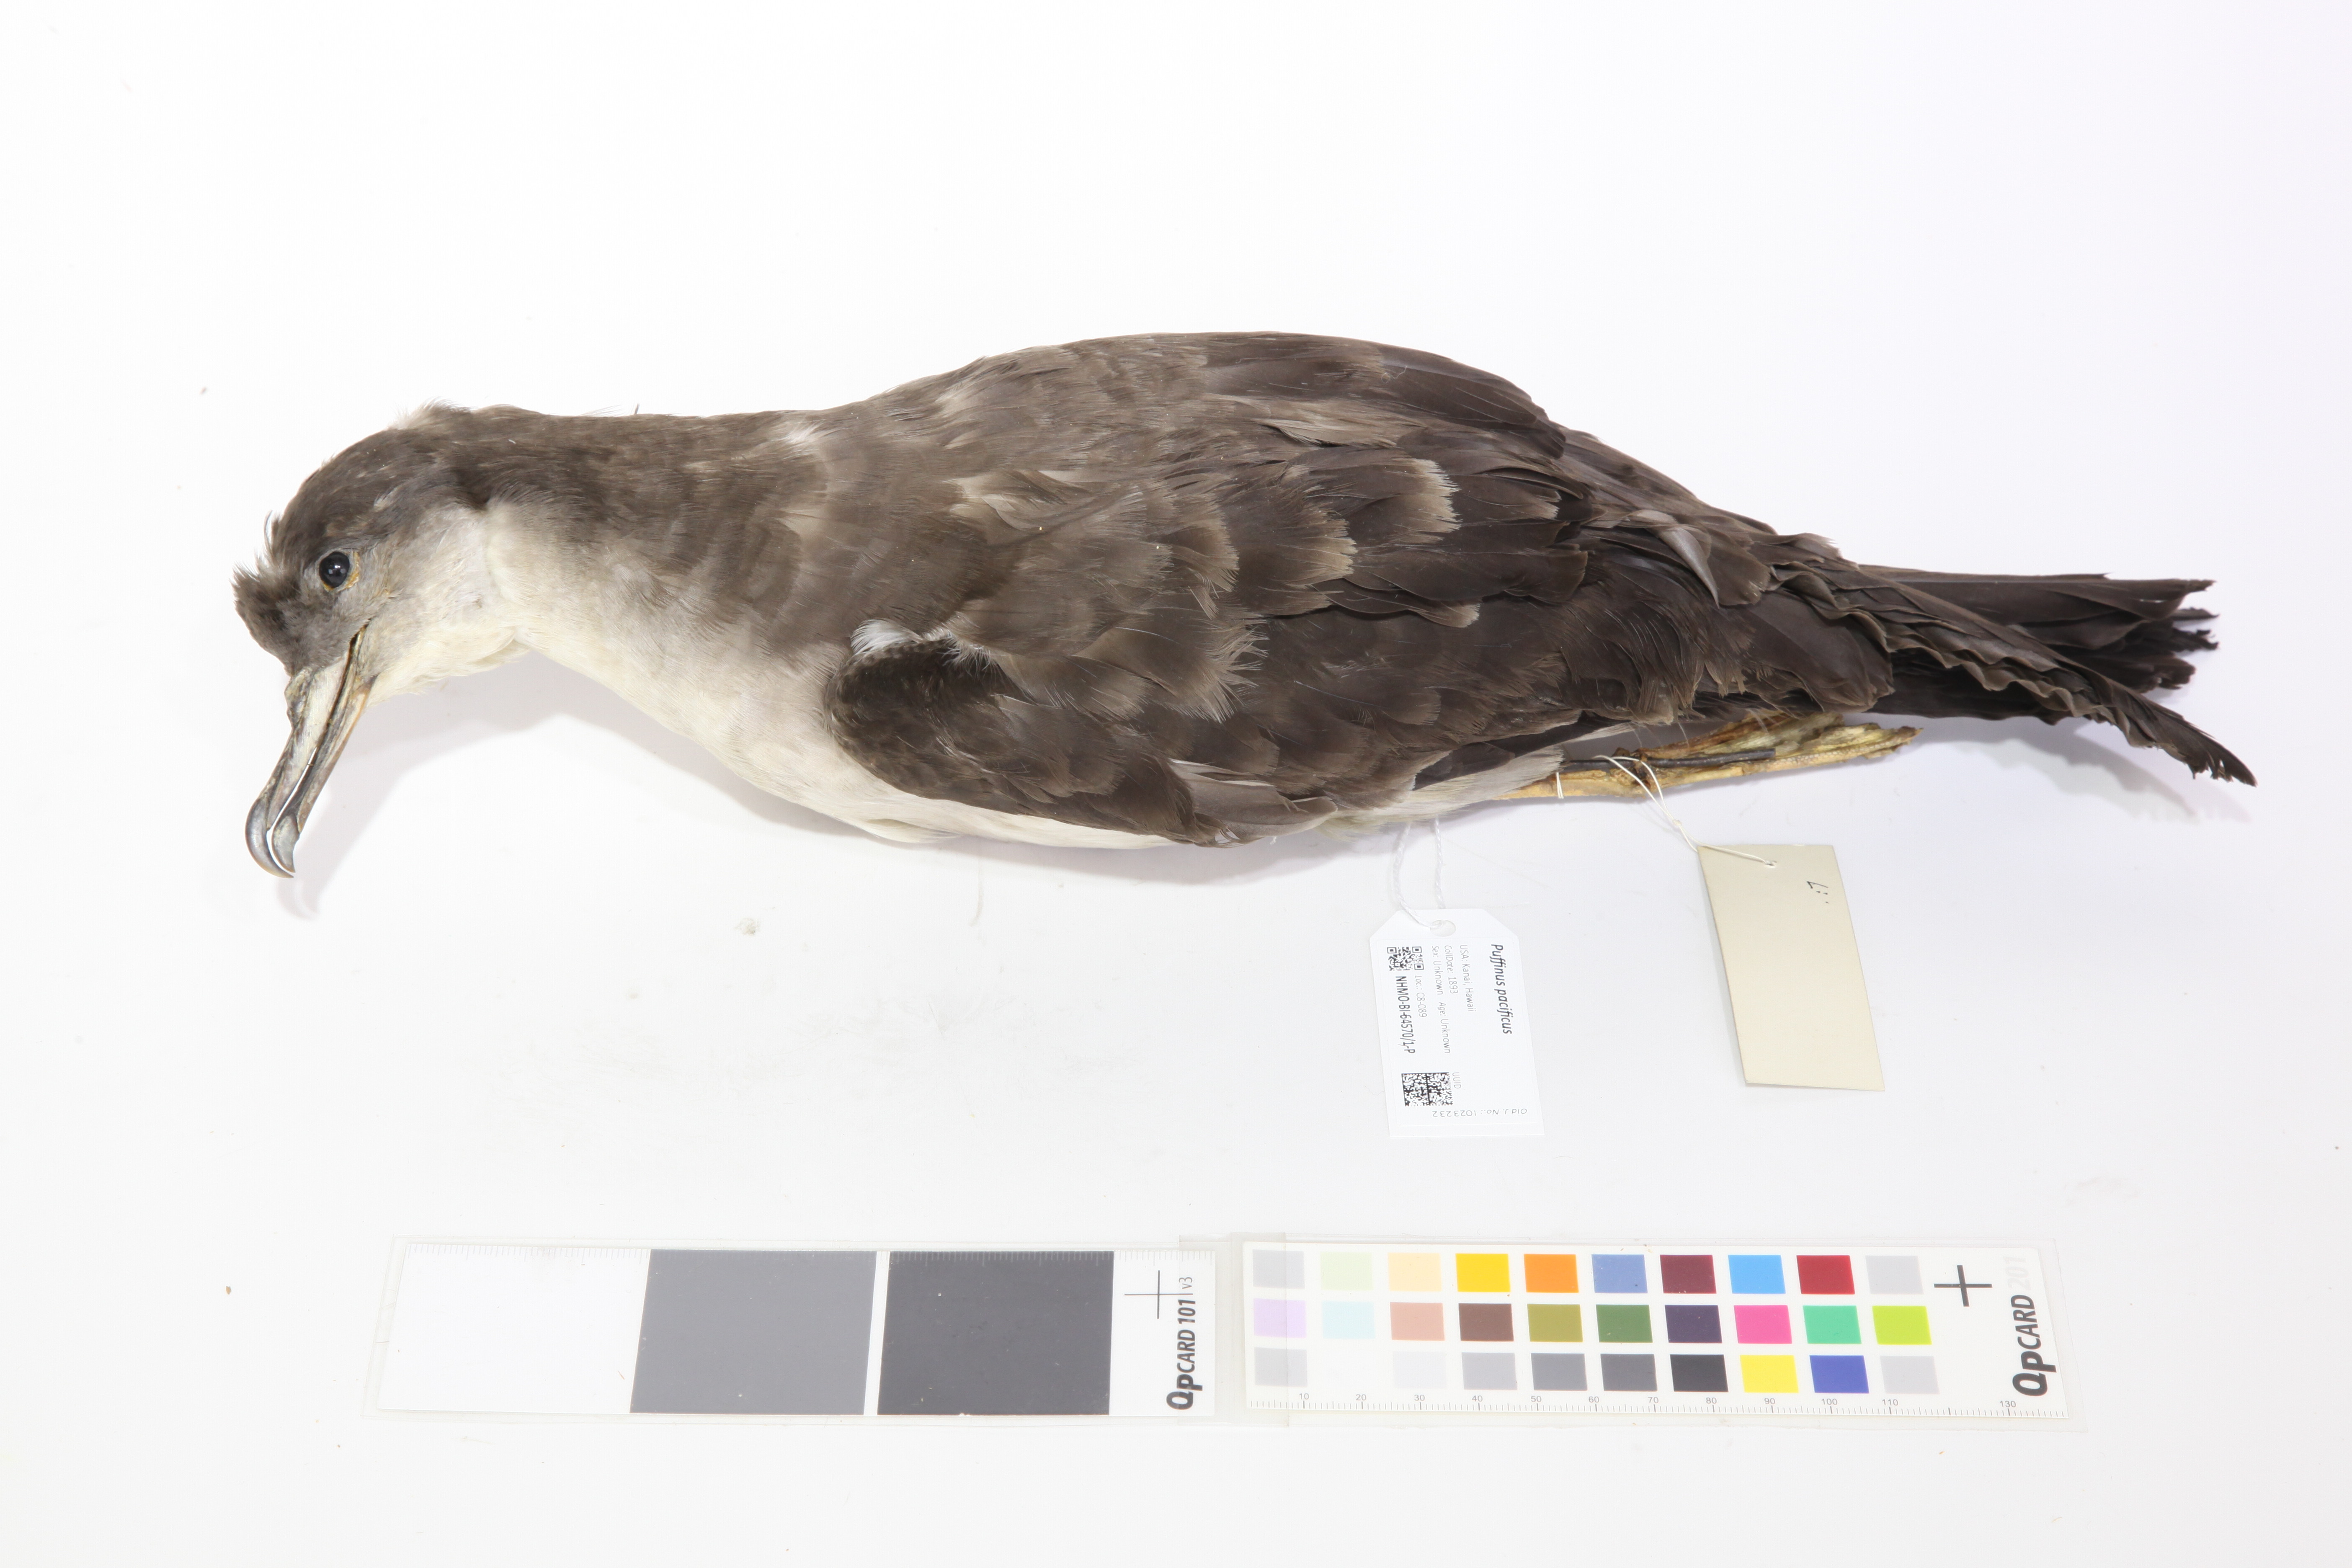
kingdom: Animalia
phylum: Chordata
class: Aves
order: Procellariiformes
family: Procellariidae
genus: Puffinus
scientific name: Puffinus pacificus
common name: Wedge-tailed shearwater
